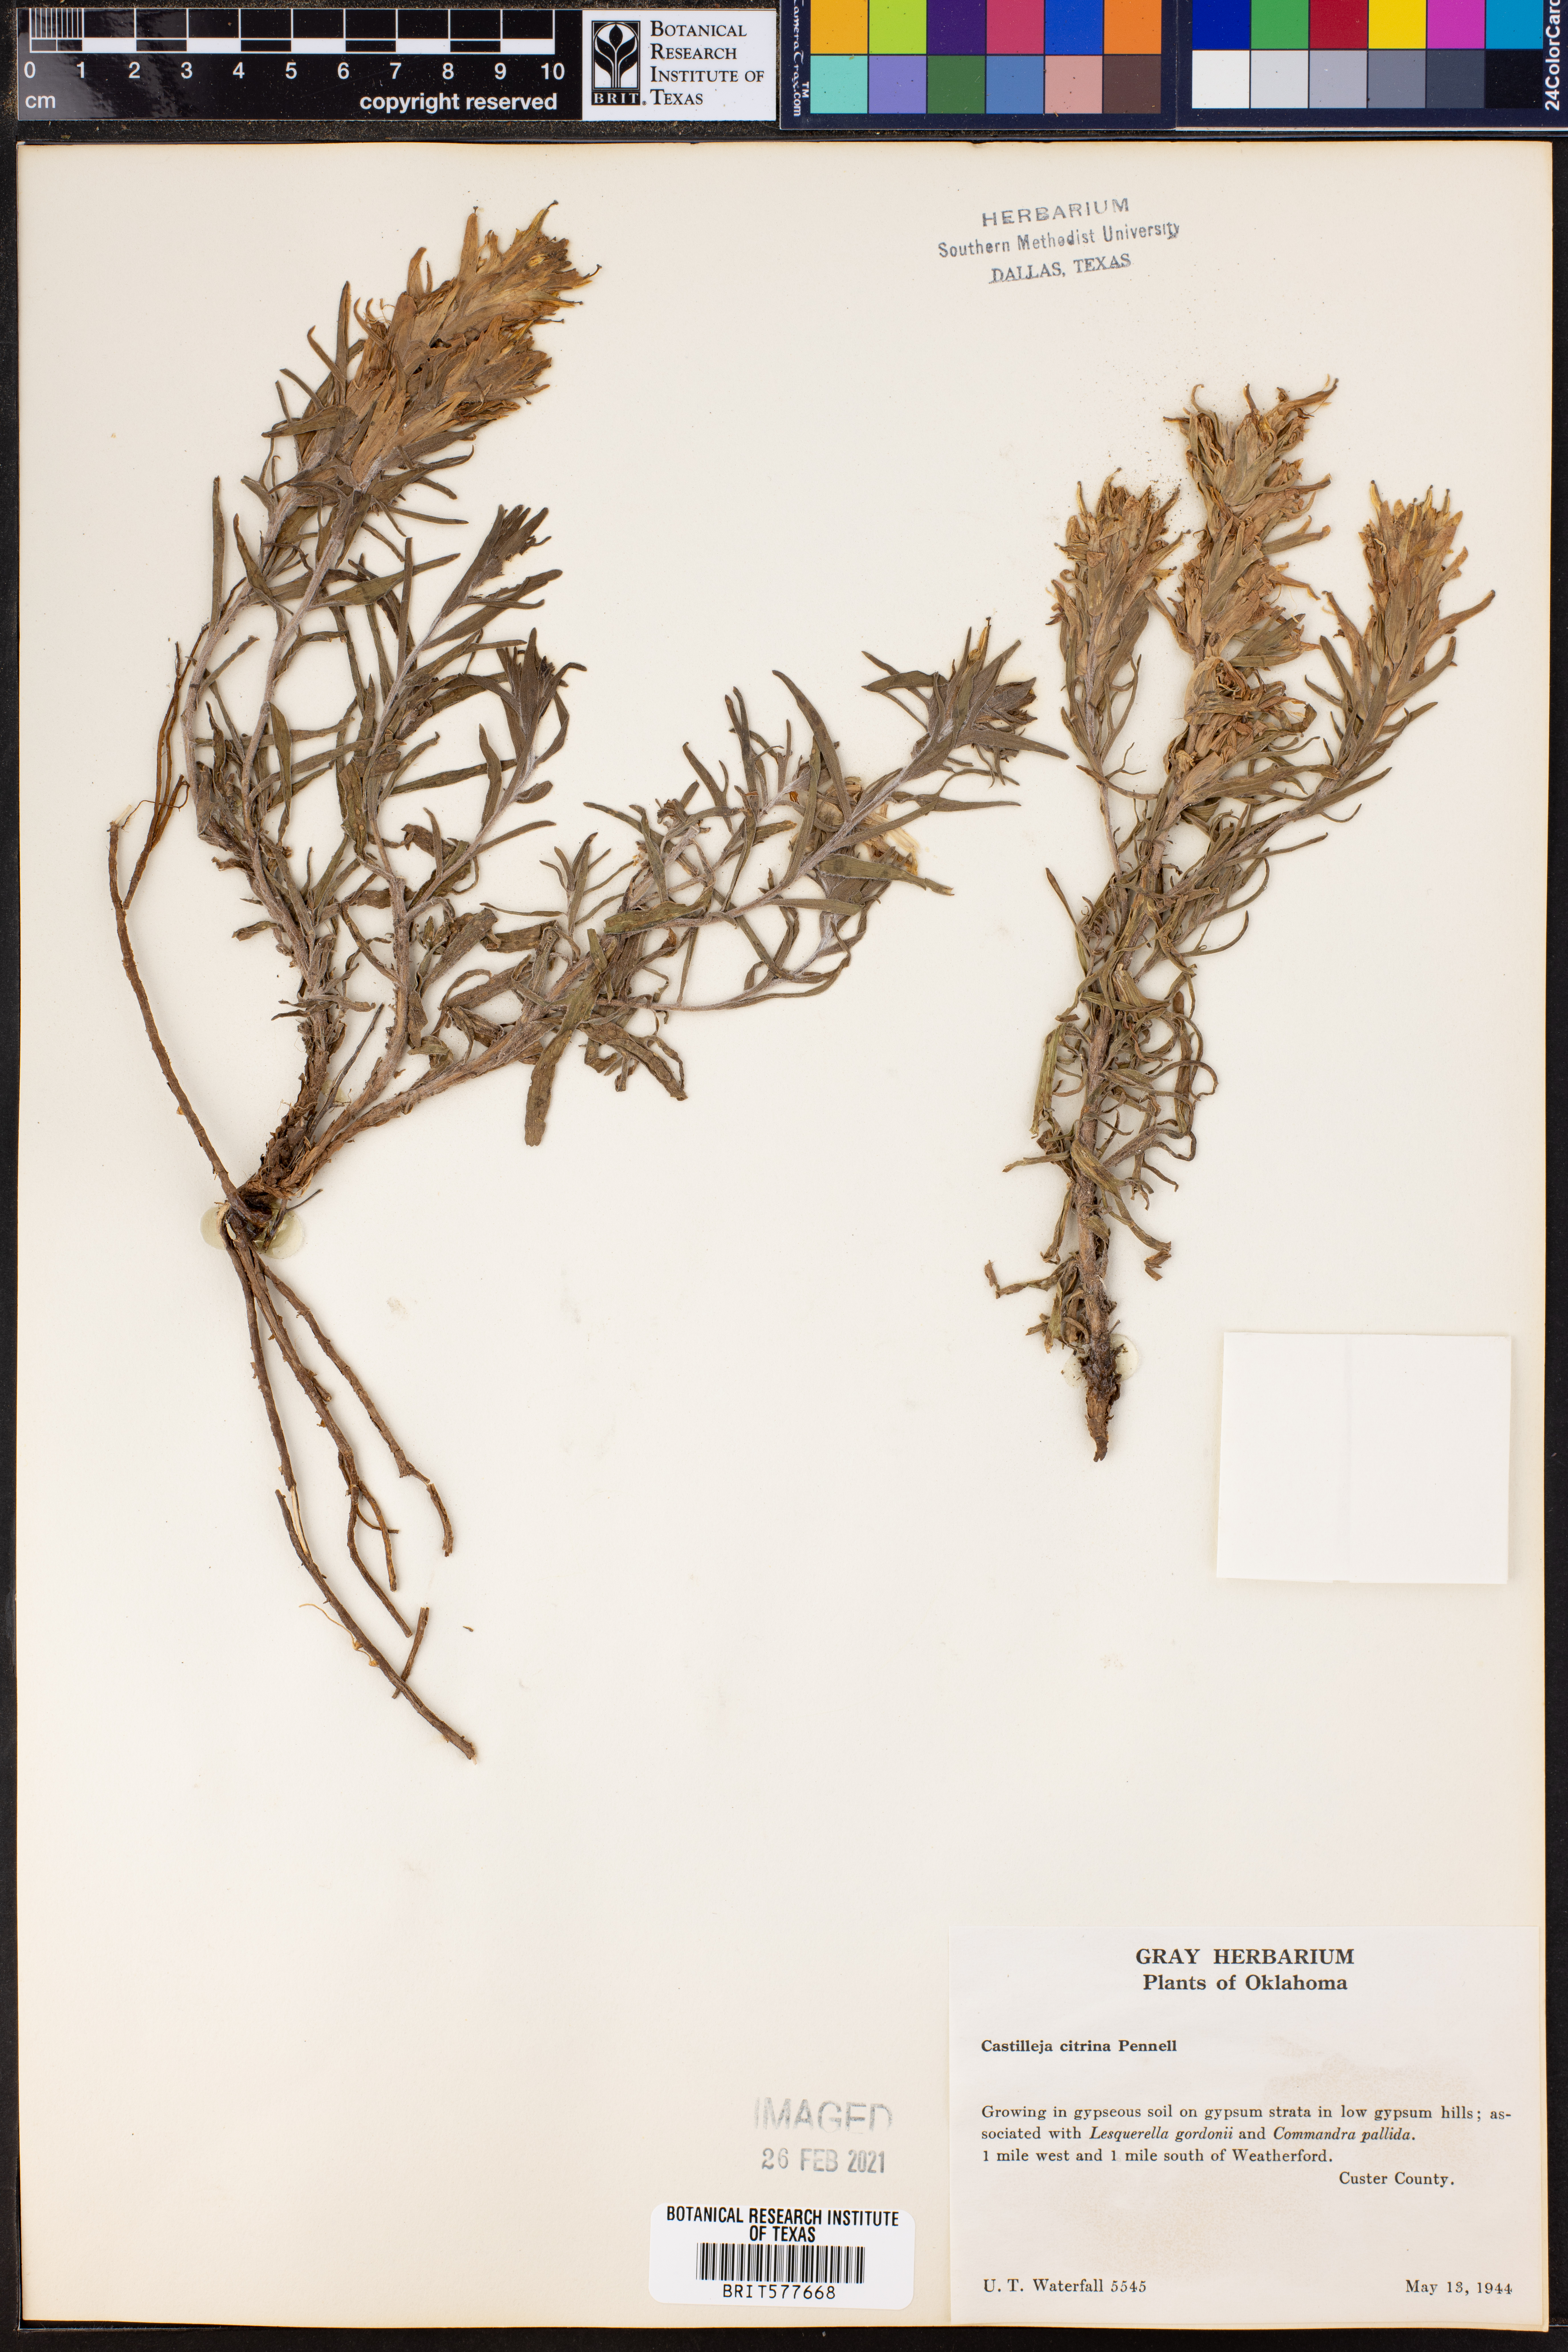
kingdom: Plantae
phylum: Tracheophyta
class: Magnoliopsida
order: Lamiales
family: Orobanchaceae
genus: Castilleja
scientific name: Castilleja citrina
